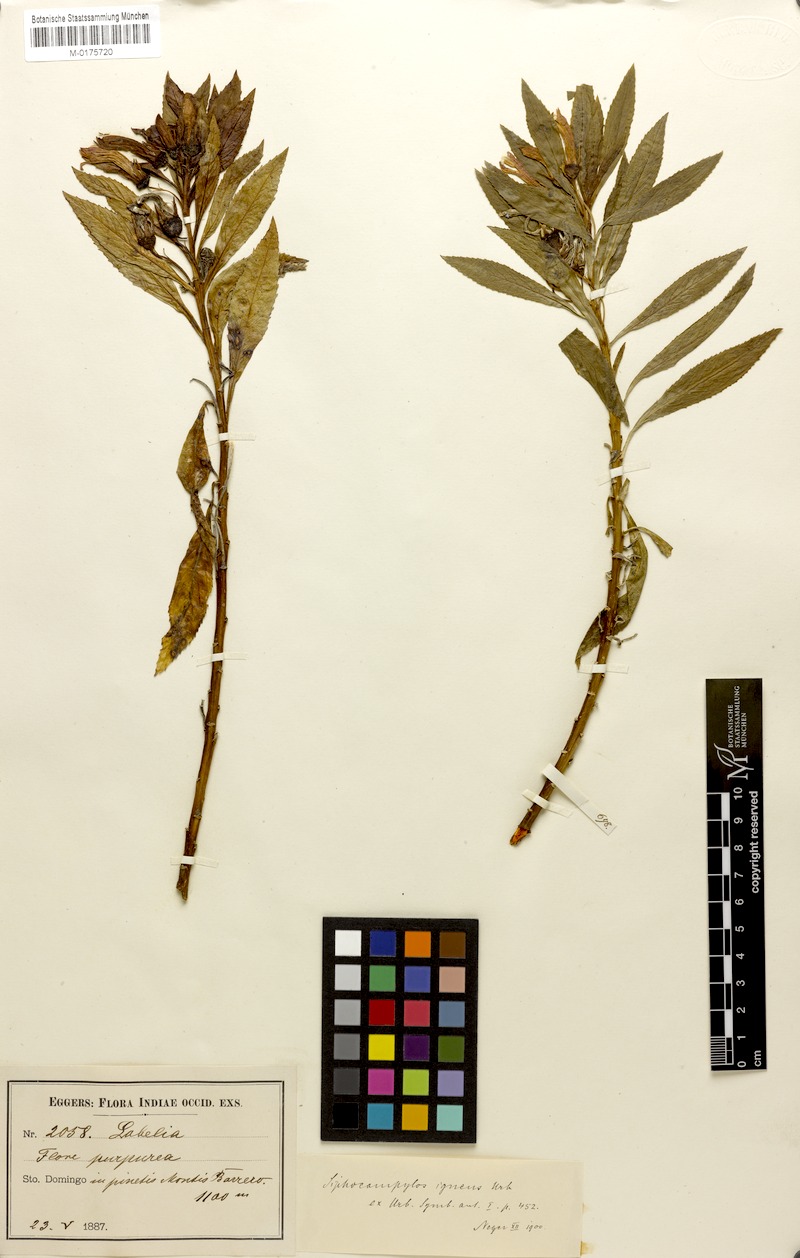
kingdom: Plantae
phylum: Tracheophyta
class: Magnoliopsida
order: Asterales
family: Campanulaceae
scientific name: Campanulaceae
